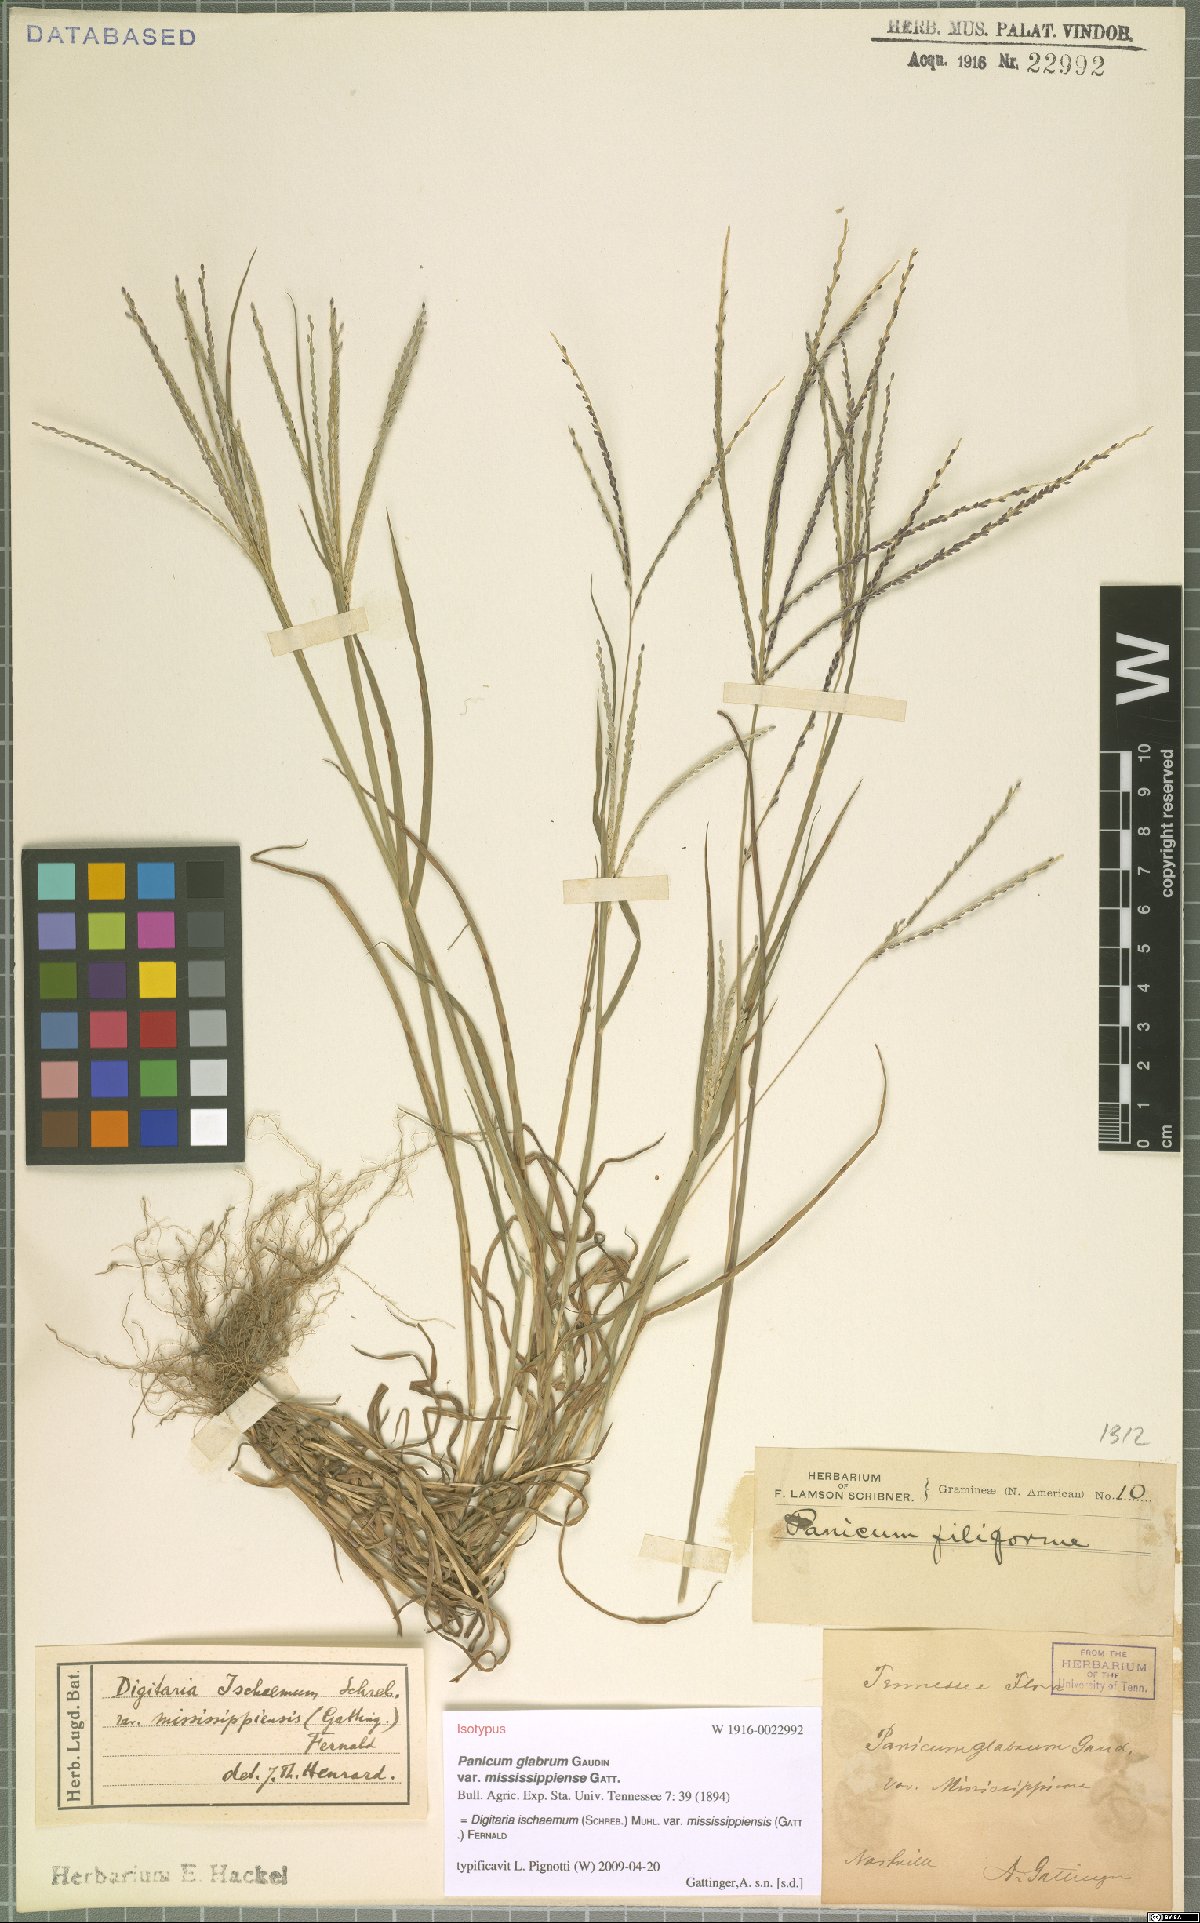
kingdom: Plantae
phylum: Tracheophyta
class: Liliopsida
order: Poales
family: Poaceae
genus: Digitaria
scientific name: Digitaria ischaemum
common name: Smooth crabgrass
